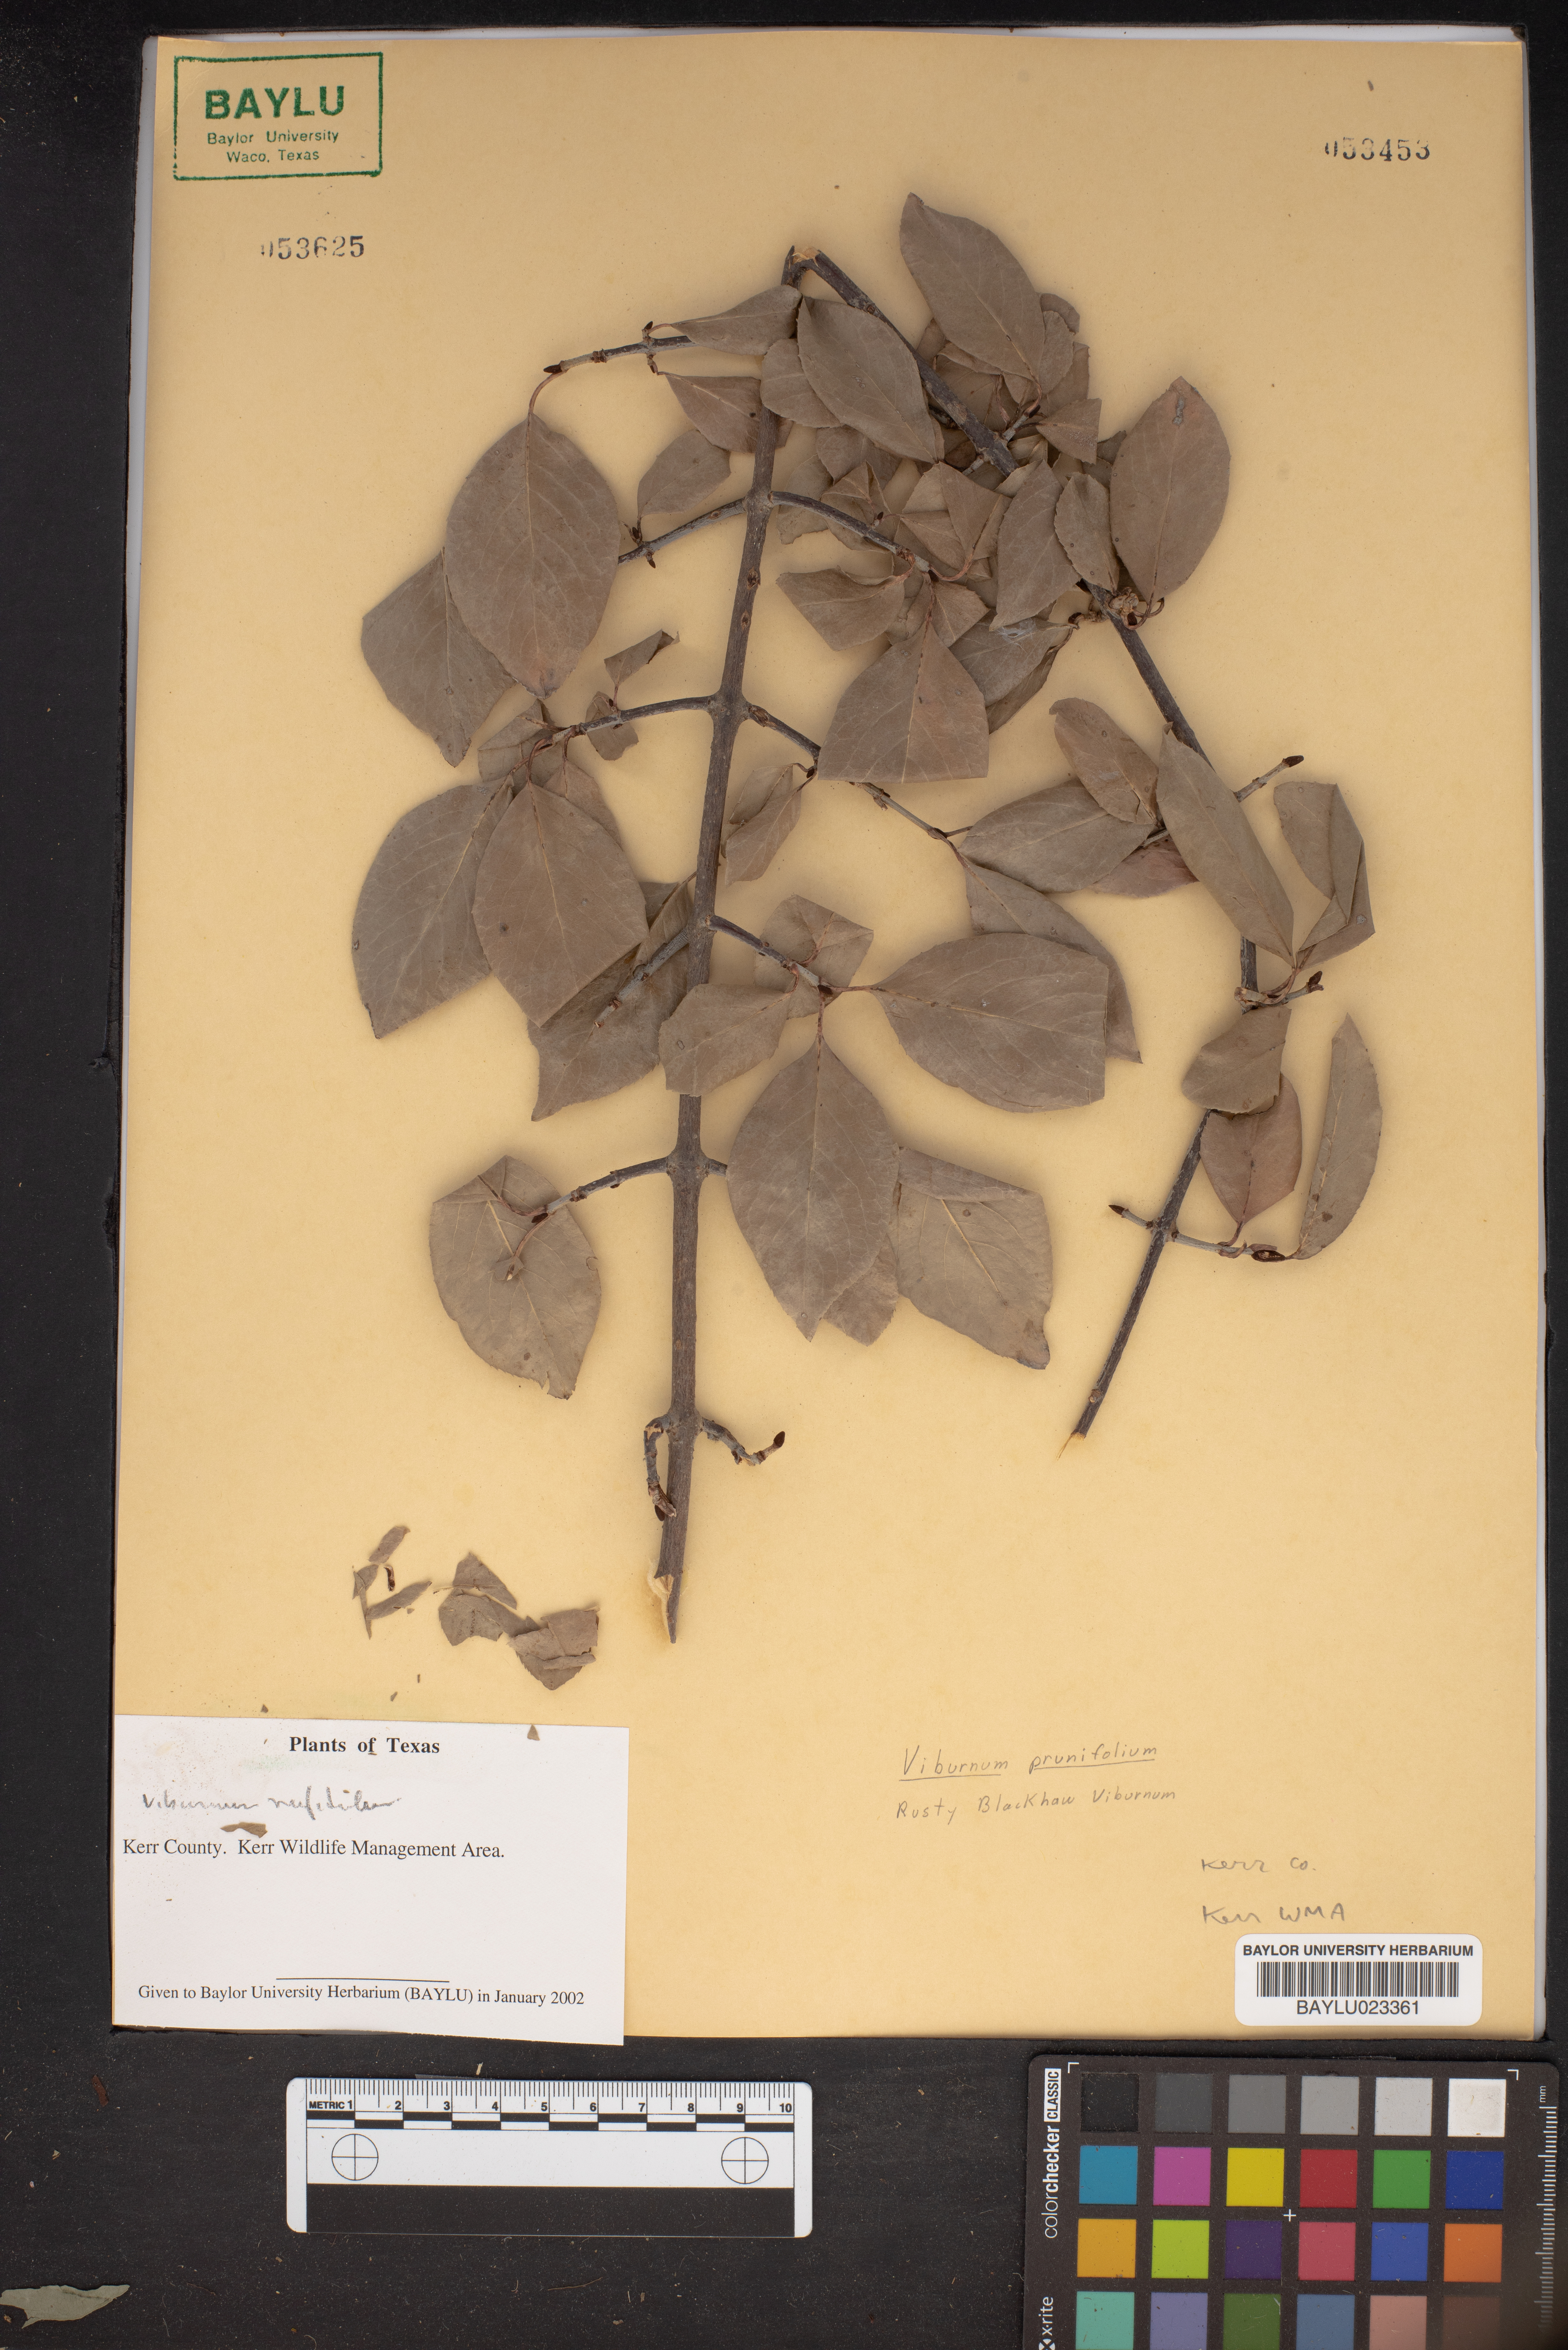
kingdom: Plantae
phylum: Tracheophyta
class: Magnoliopsida
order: Dipsacales
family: Viburnaceae
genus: Viburnum
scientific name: Viburnum prunifolium
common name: Black haw
